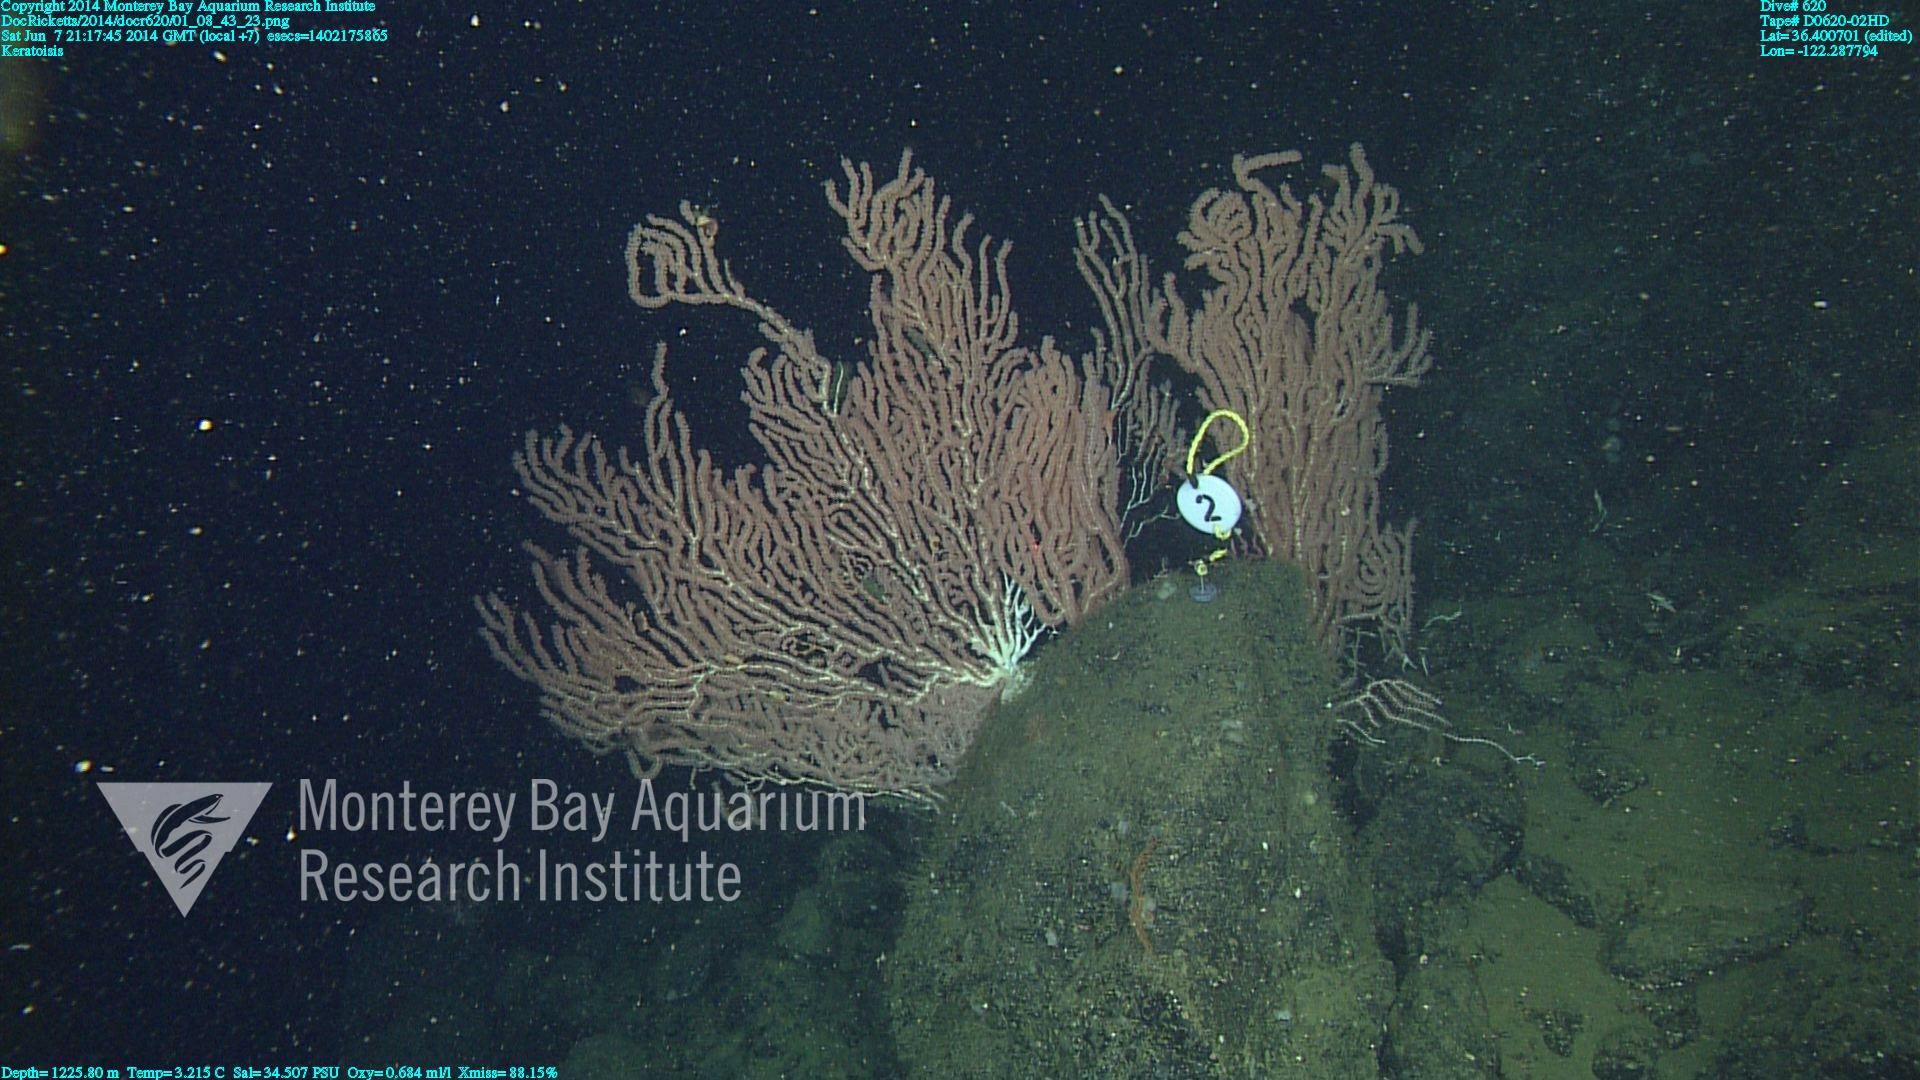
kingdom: Animalia
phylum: Cnidaria
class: Anthozoa
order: Scleralcyonacea
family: Keratoisididae
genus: Keratoisis
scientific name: Keratoisis
